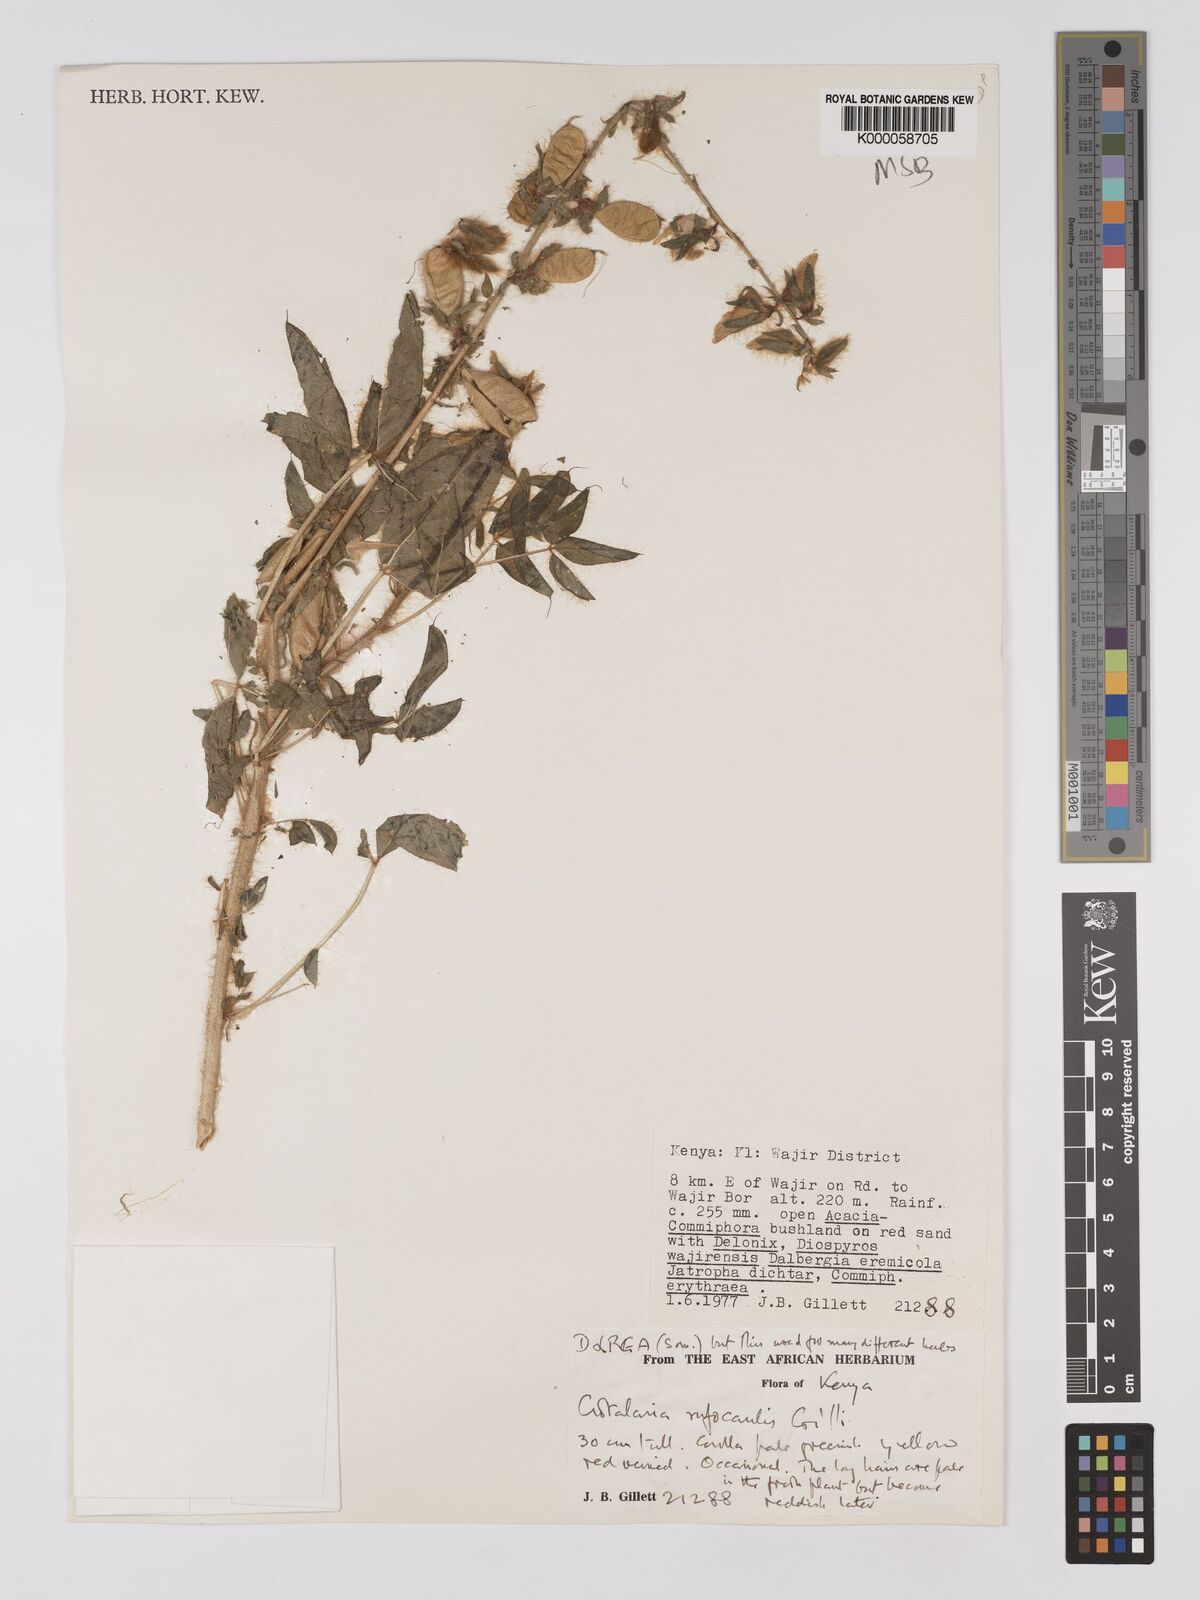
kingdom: Plantae
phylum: Tracheophyta
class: Magnoliopsida
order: Fabales
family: Fabaceae
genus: Crotalaria
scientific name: Crotalaria rufocaulis
